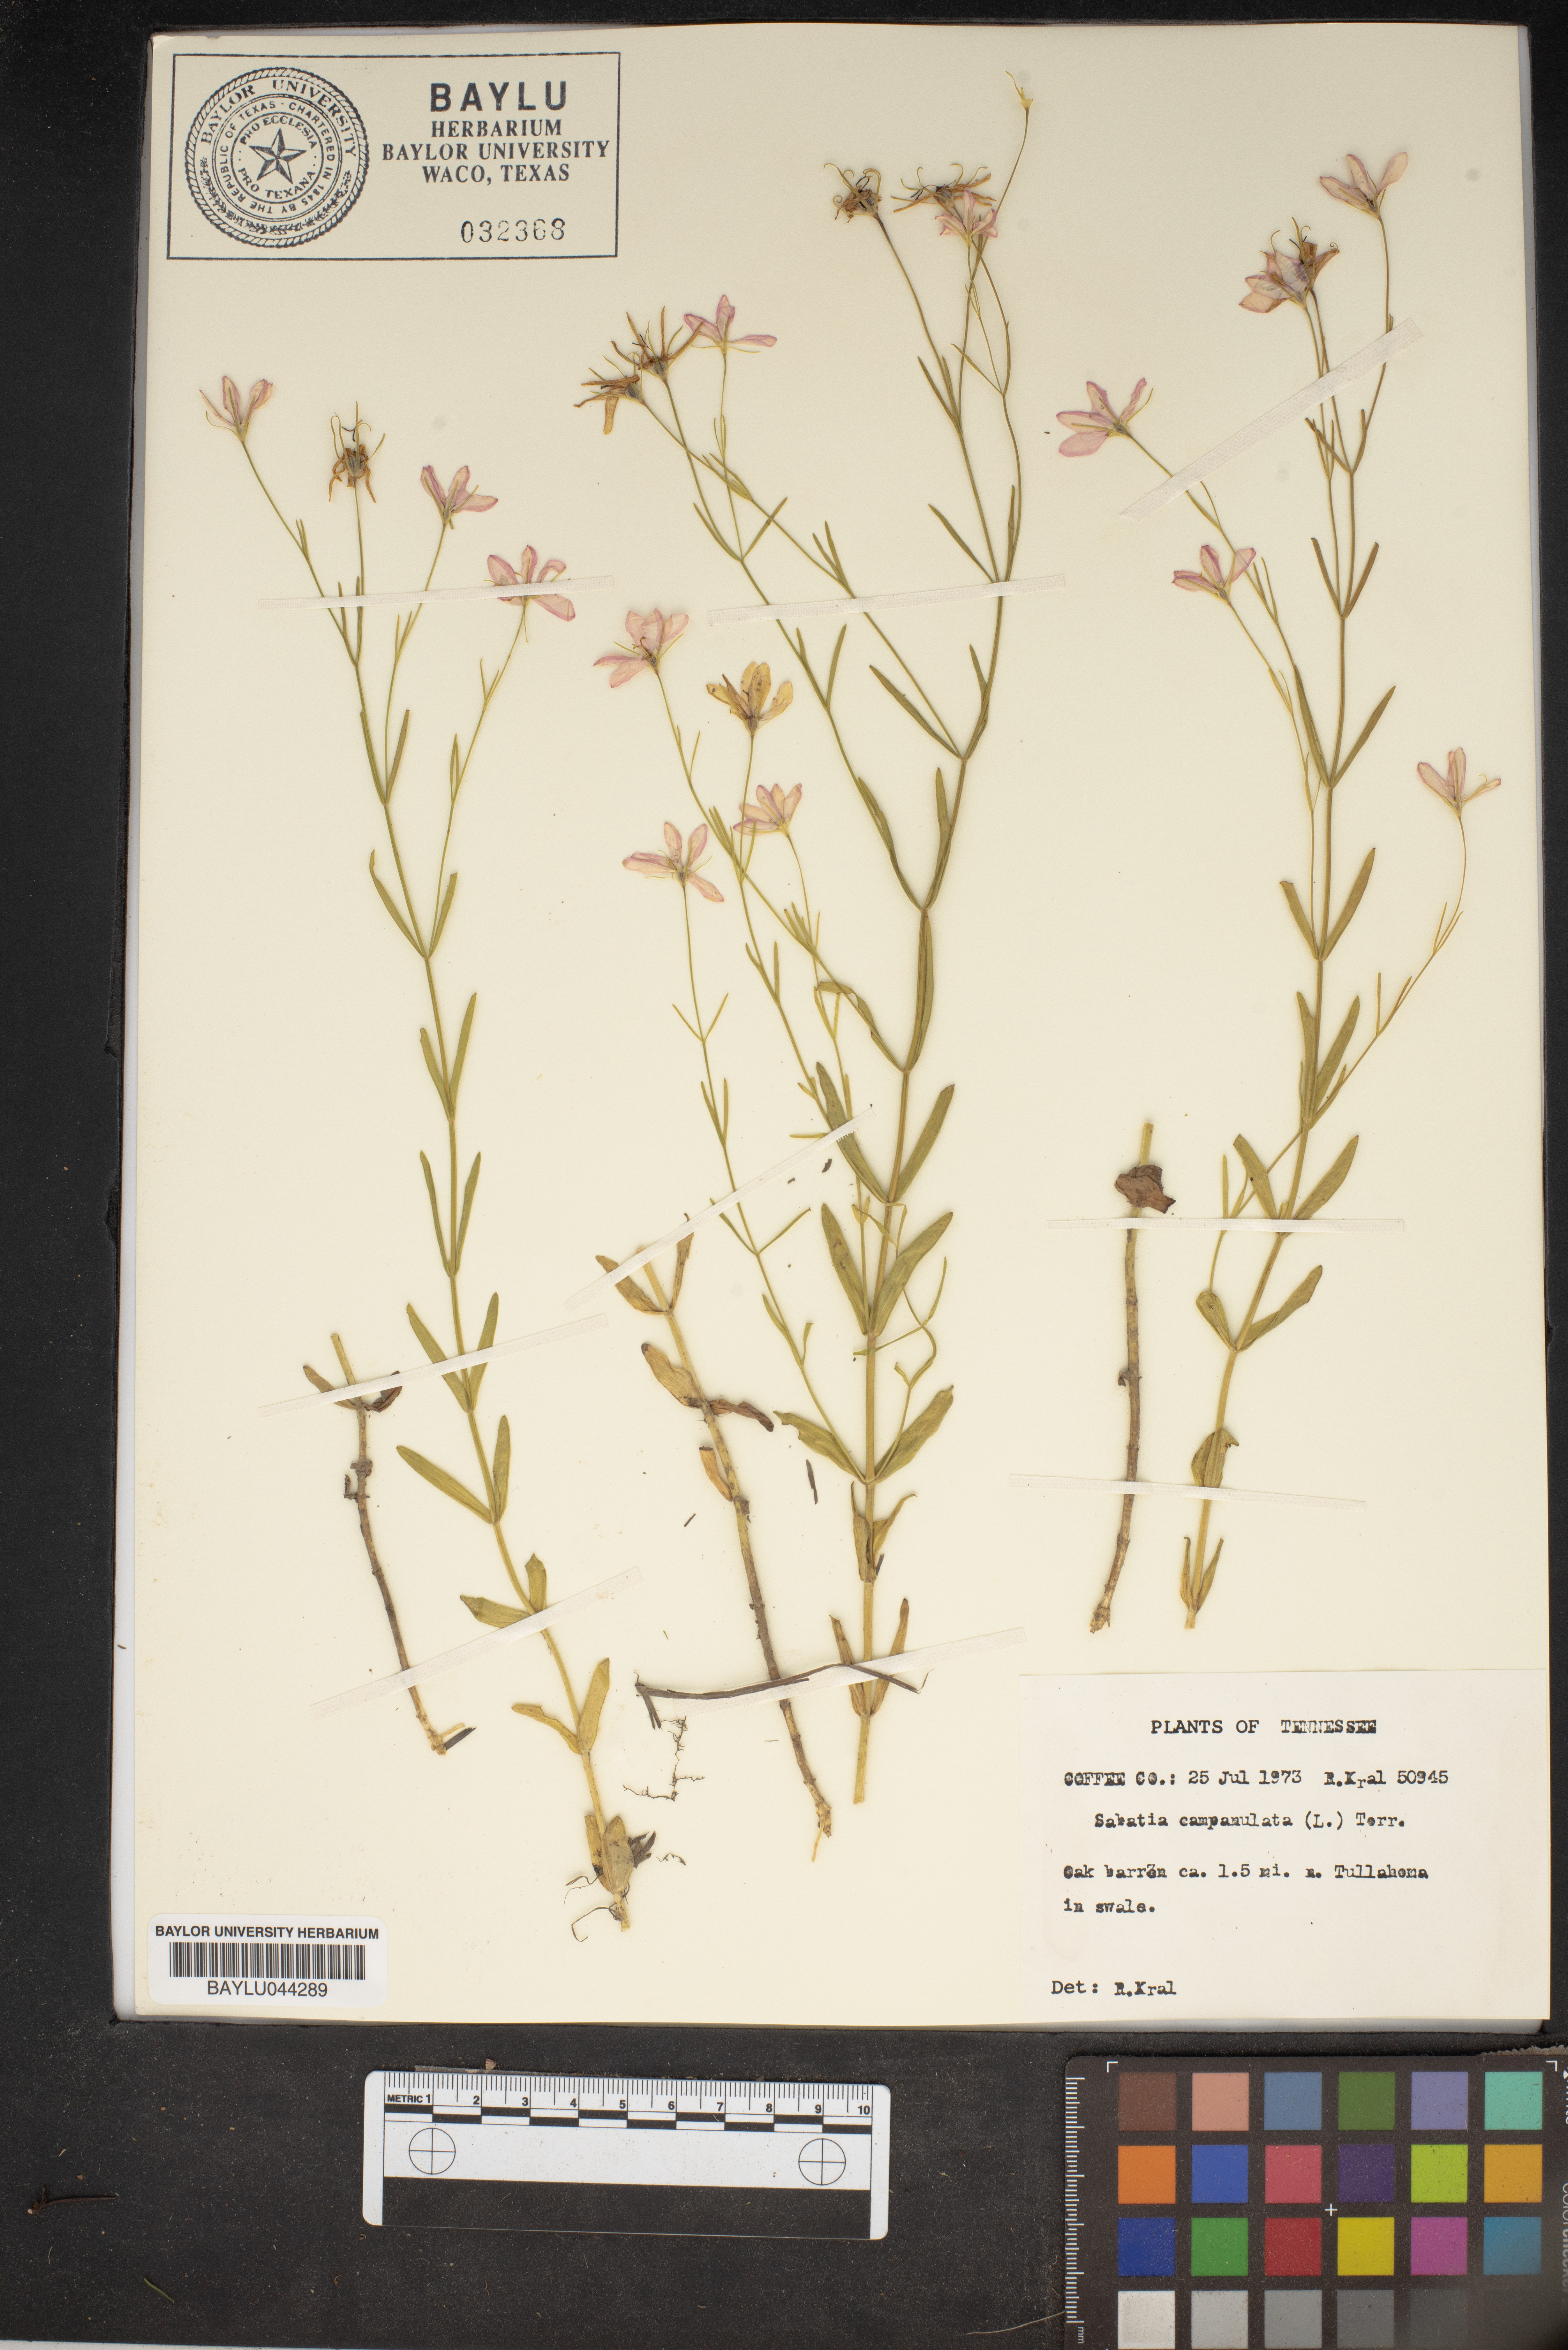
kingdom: Plantae
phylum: Tracheophyta
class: Magnoliopsida
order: Gentianales
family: Gentianaceae
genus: Sabatia
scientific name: Sabatia campanulata
